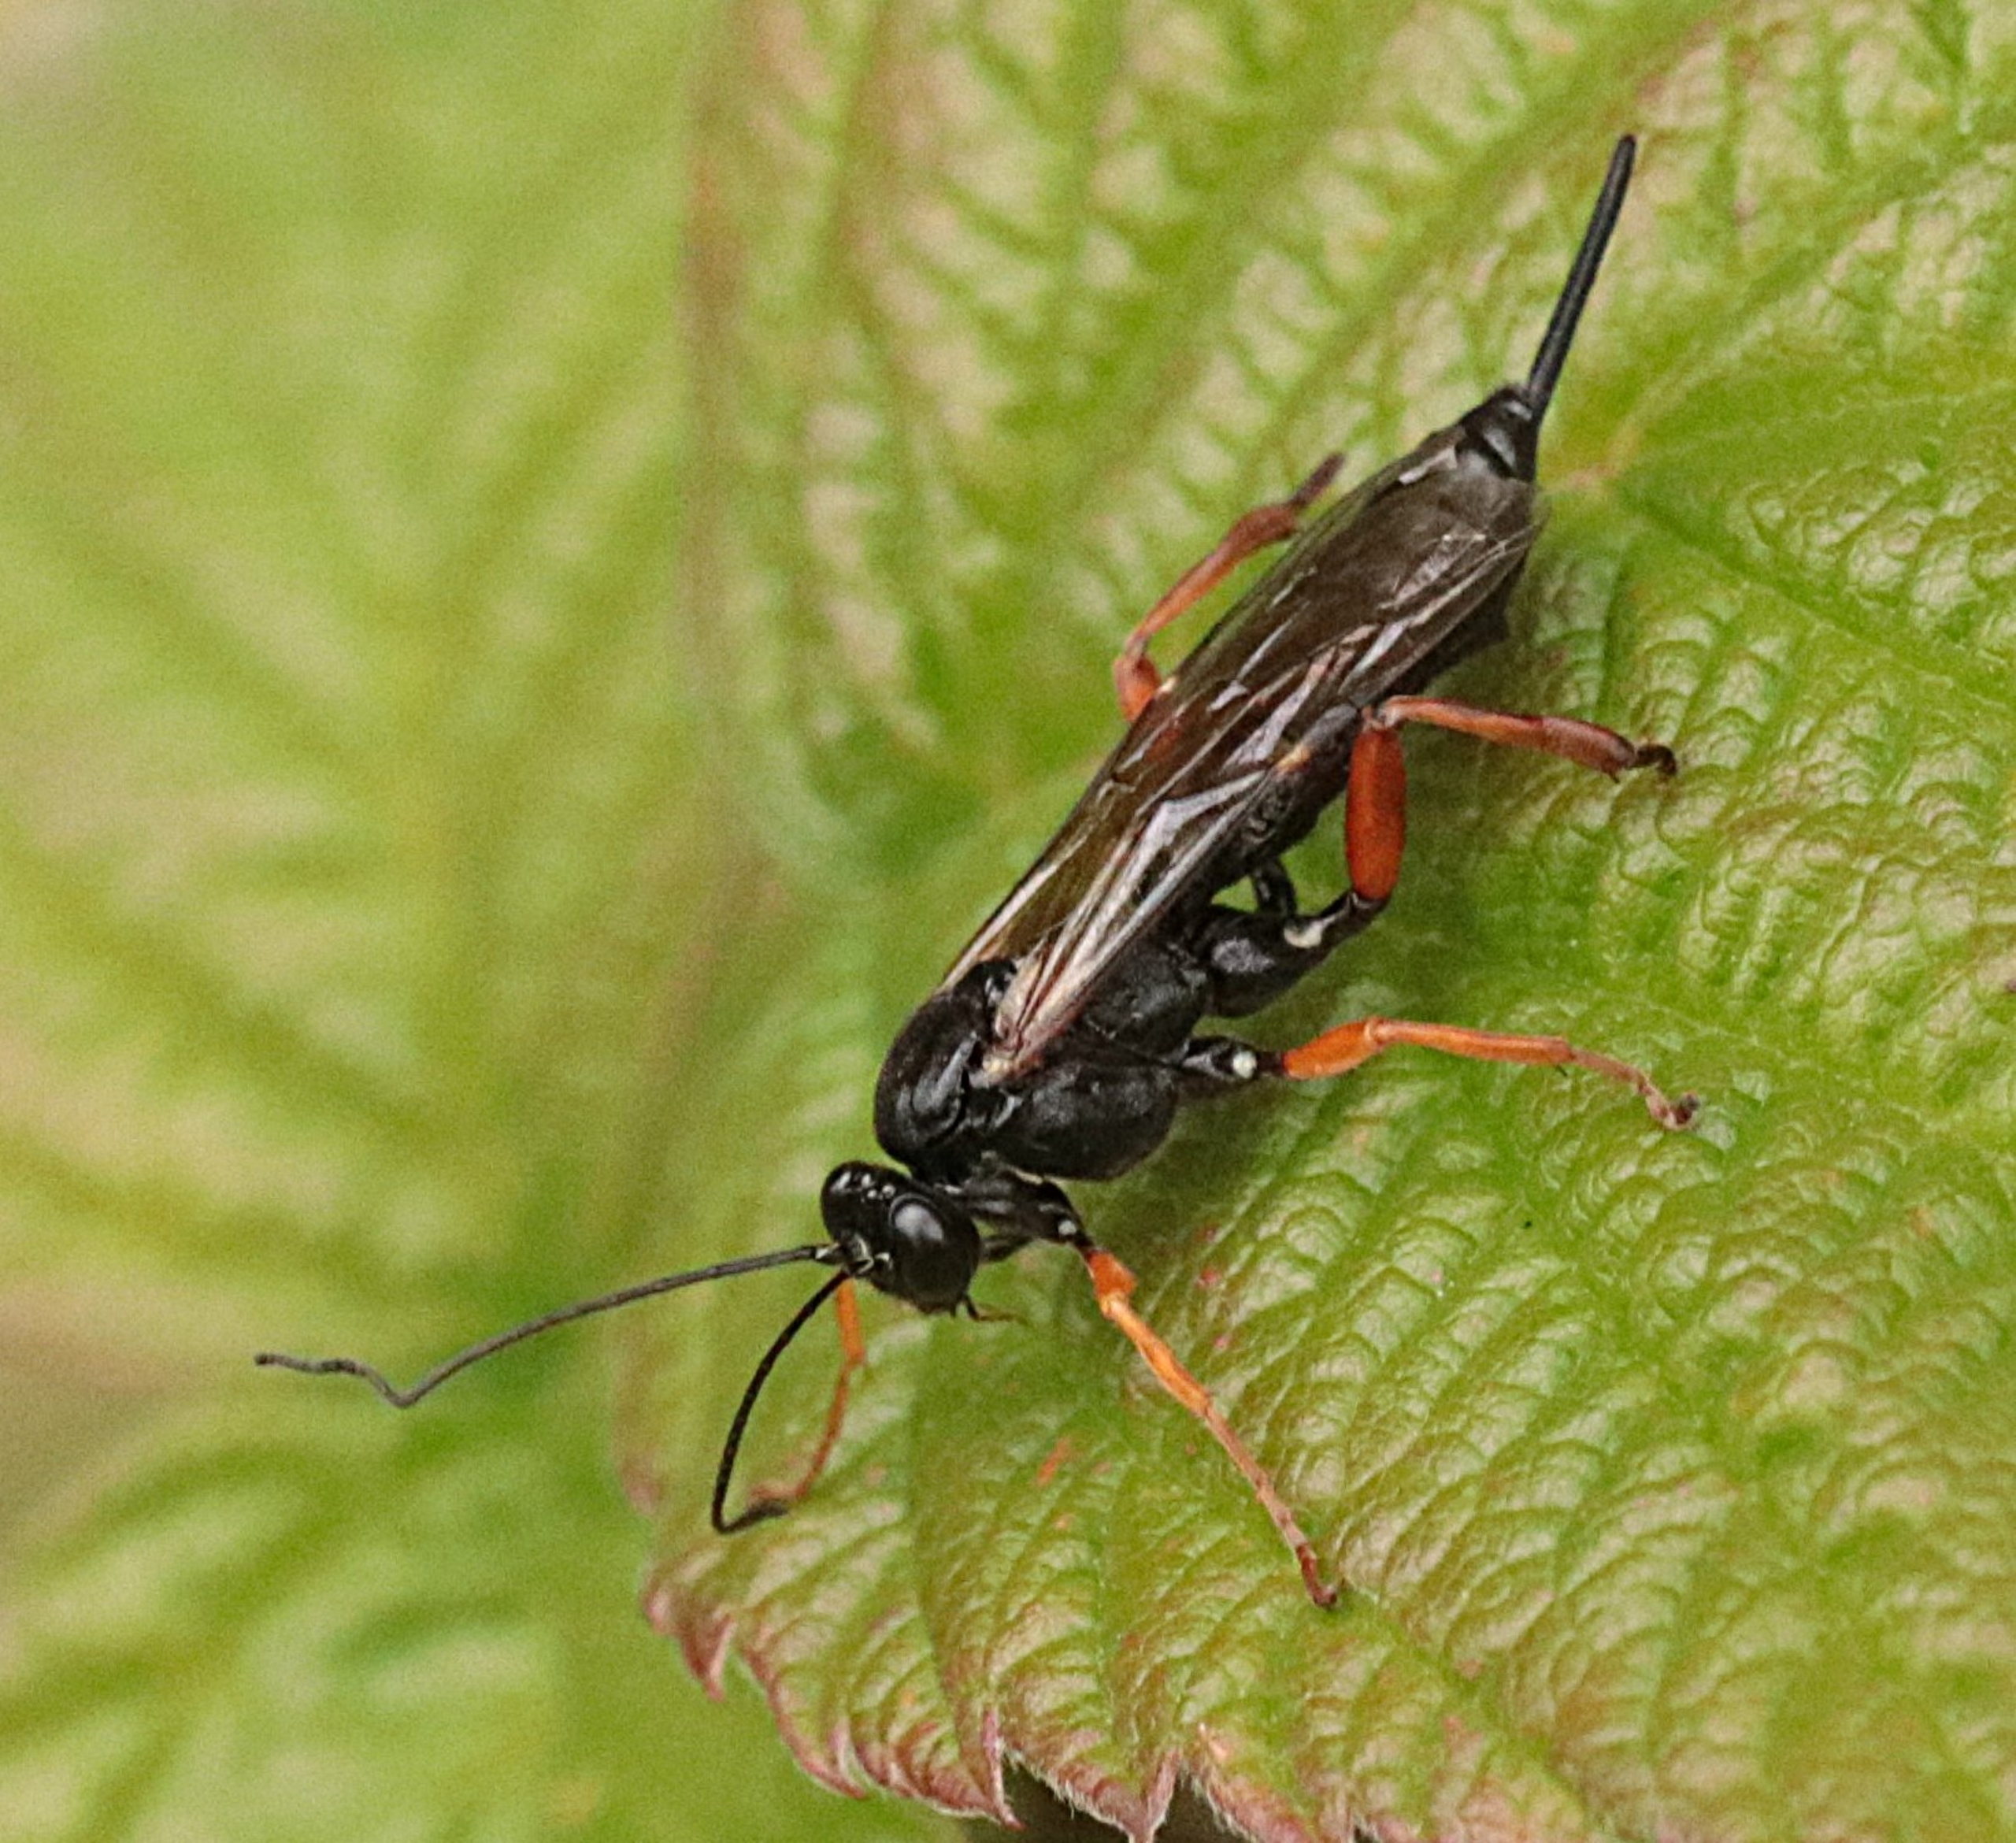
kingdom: Animalia
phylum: Arthropoda
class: Insecta
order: Hymenoptera
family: Ichneumonidae
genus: Pimpla
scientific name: Pimpla rufipes
